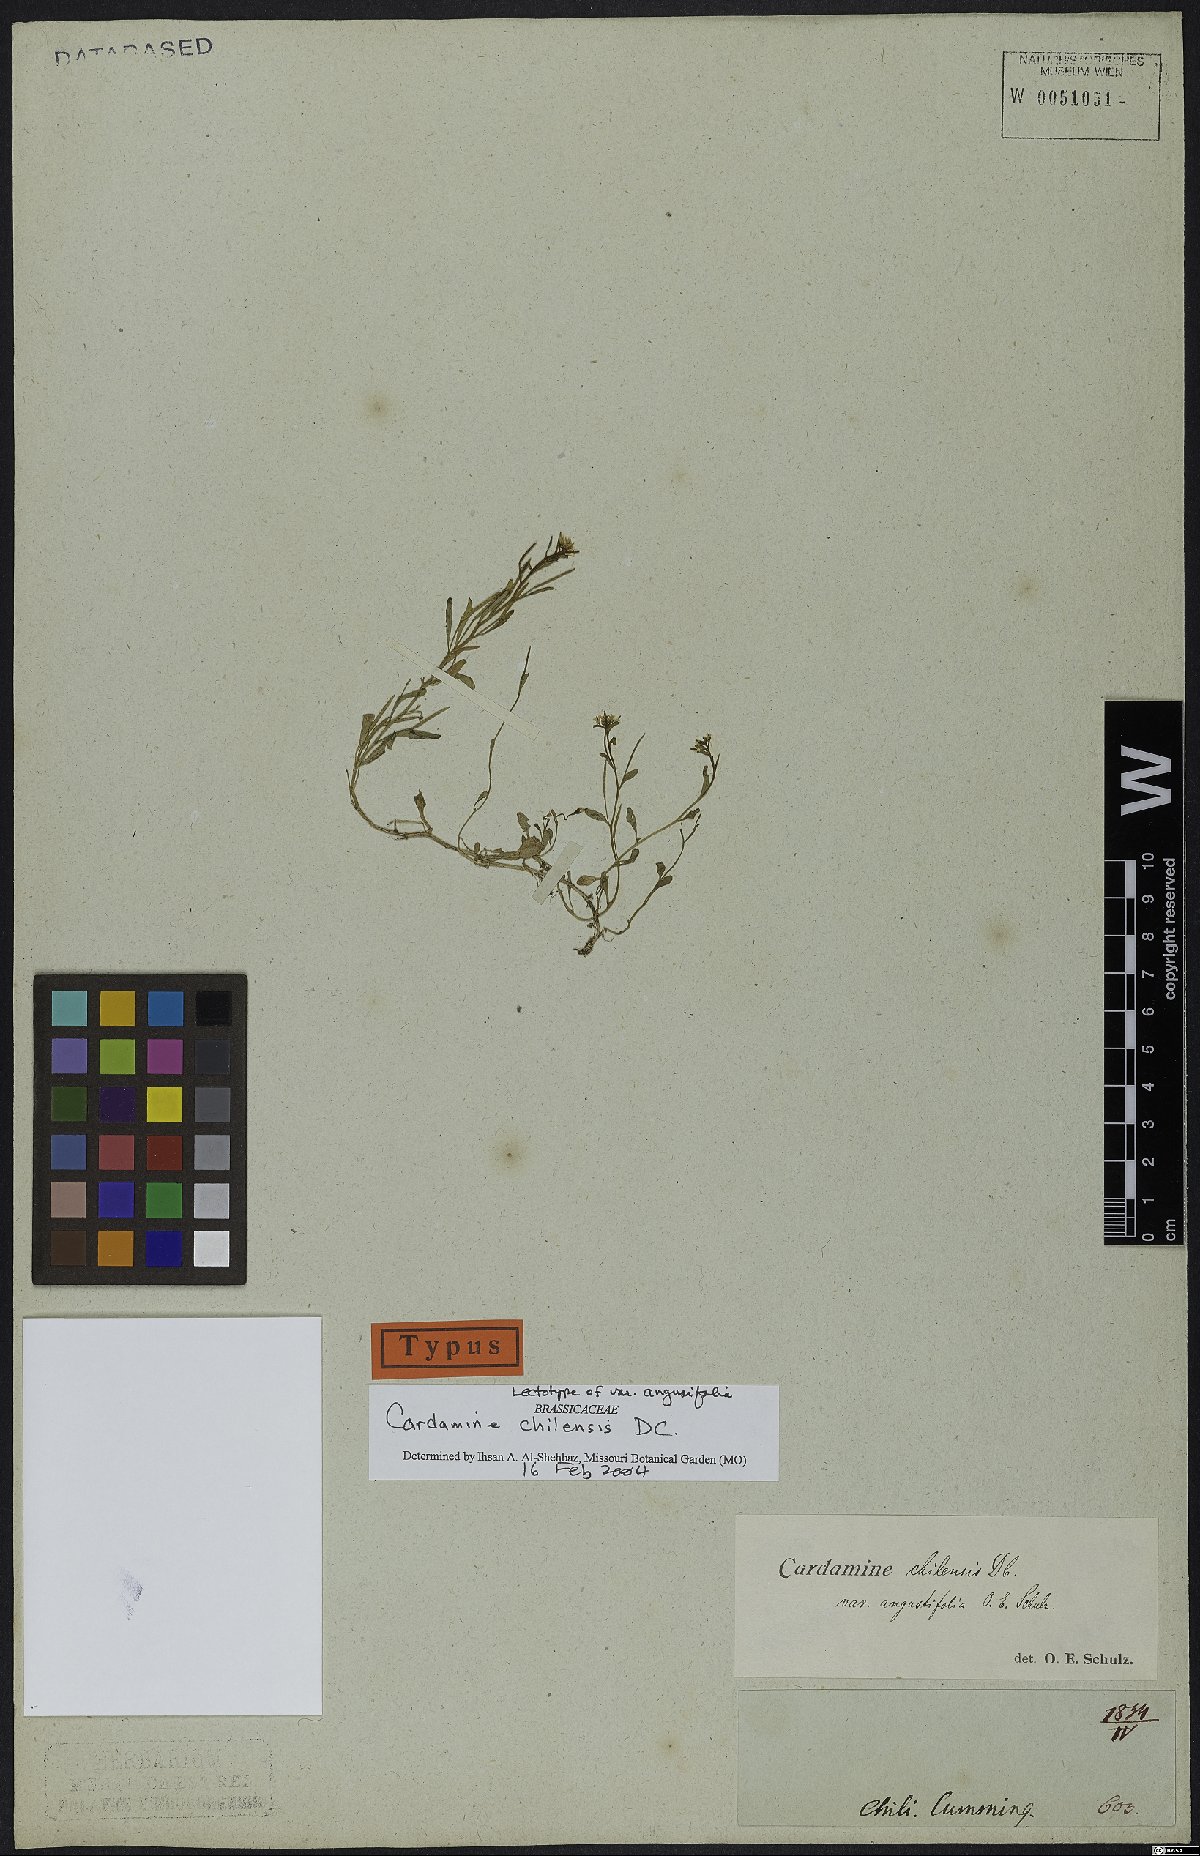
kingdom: Plantae
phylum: Tracheophyta
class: Magnoliopsida
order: Brassicales
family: Brassicaceae
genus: Cardamine
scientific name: Cardamine chilensis
